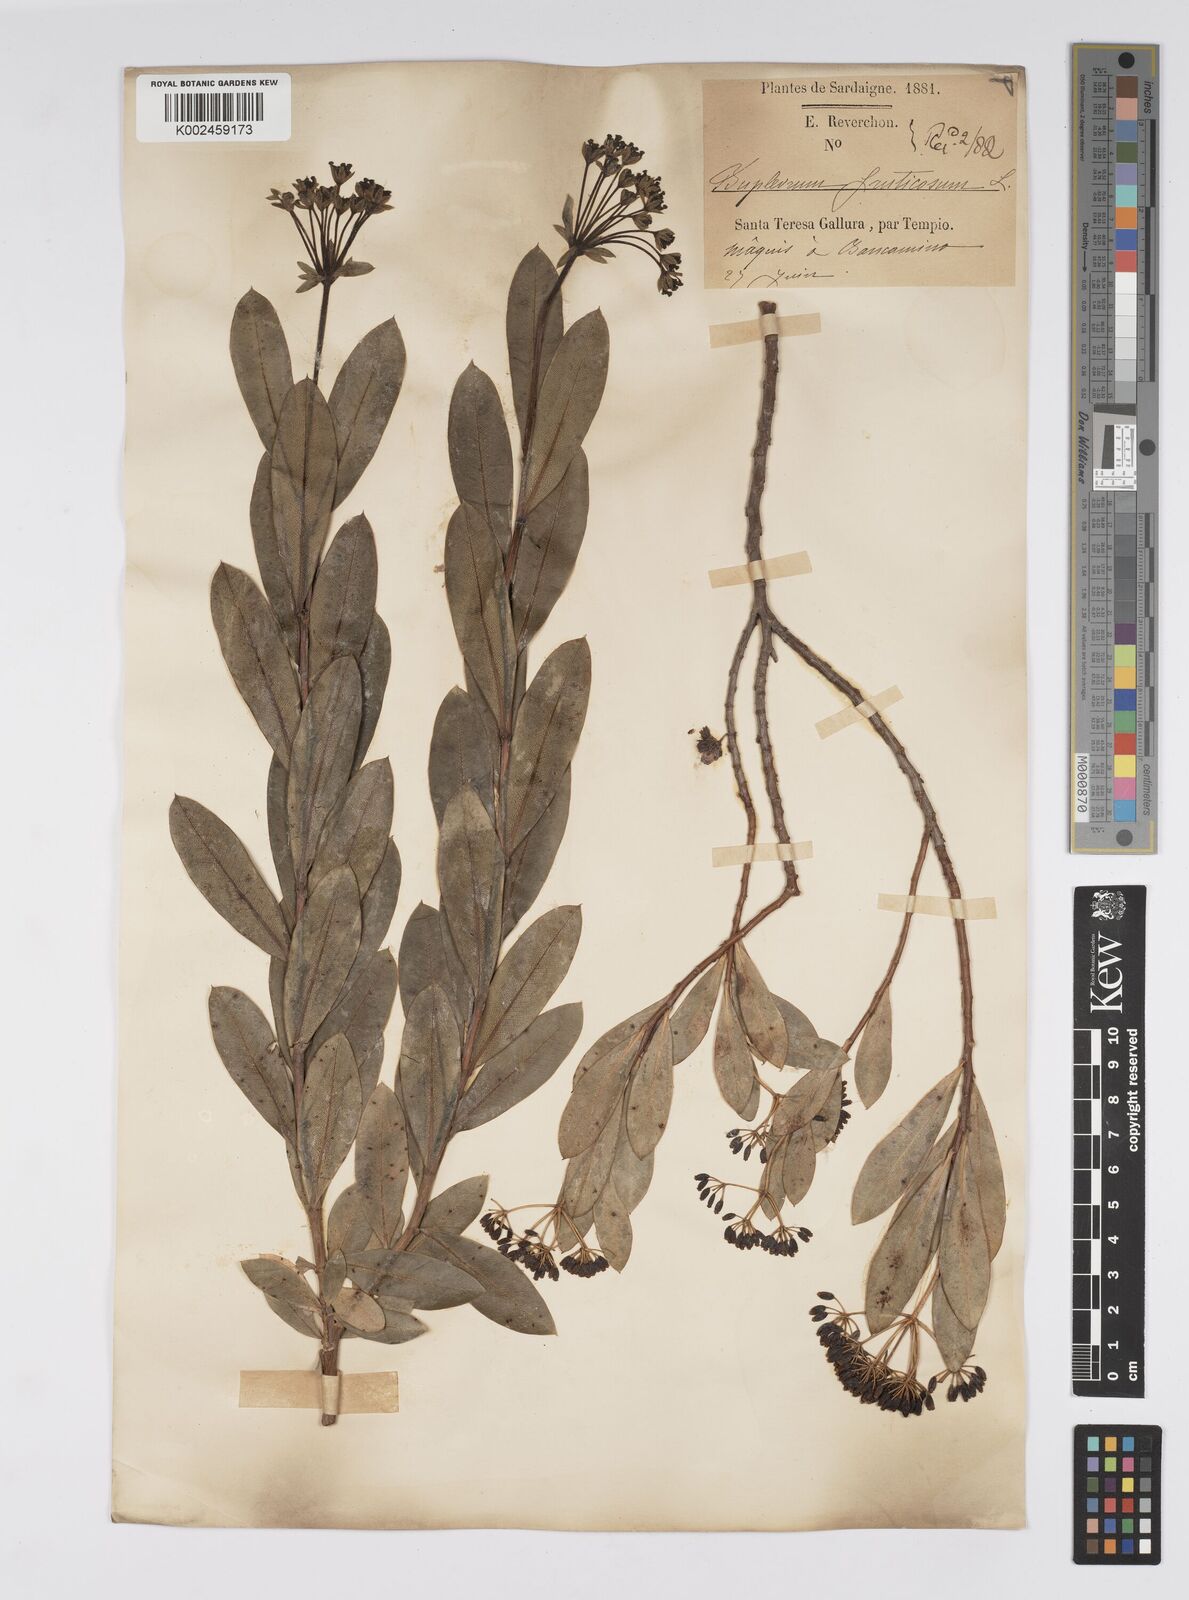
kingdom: Plantae
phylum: Tracheophyta
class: Magnoliopsida
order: Apiales
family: Apiaceae
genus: Bupleurum
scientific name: Bupleurum fruticosum
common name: Shrubby hare's-ear
